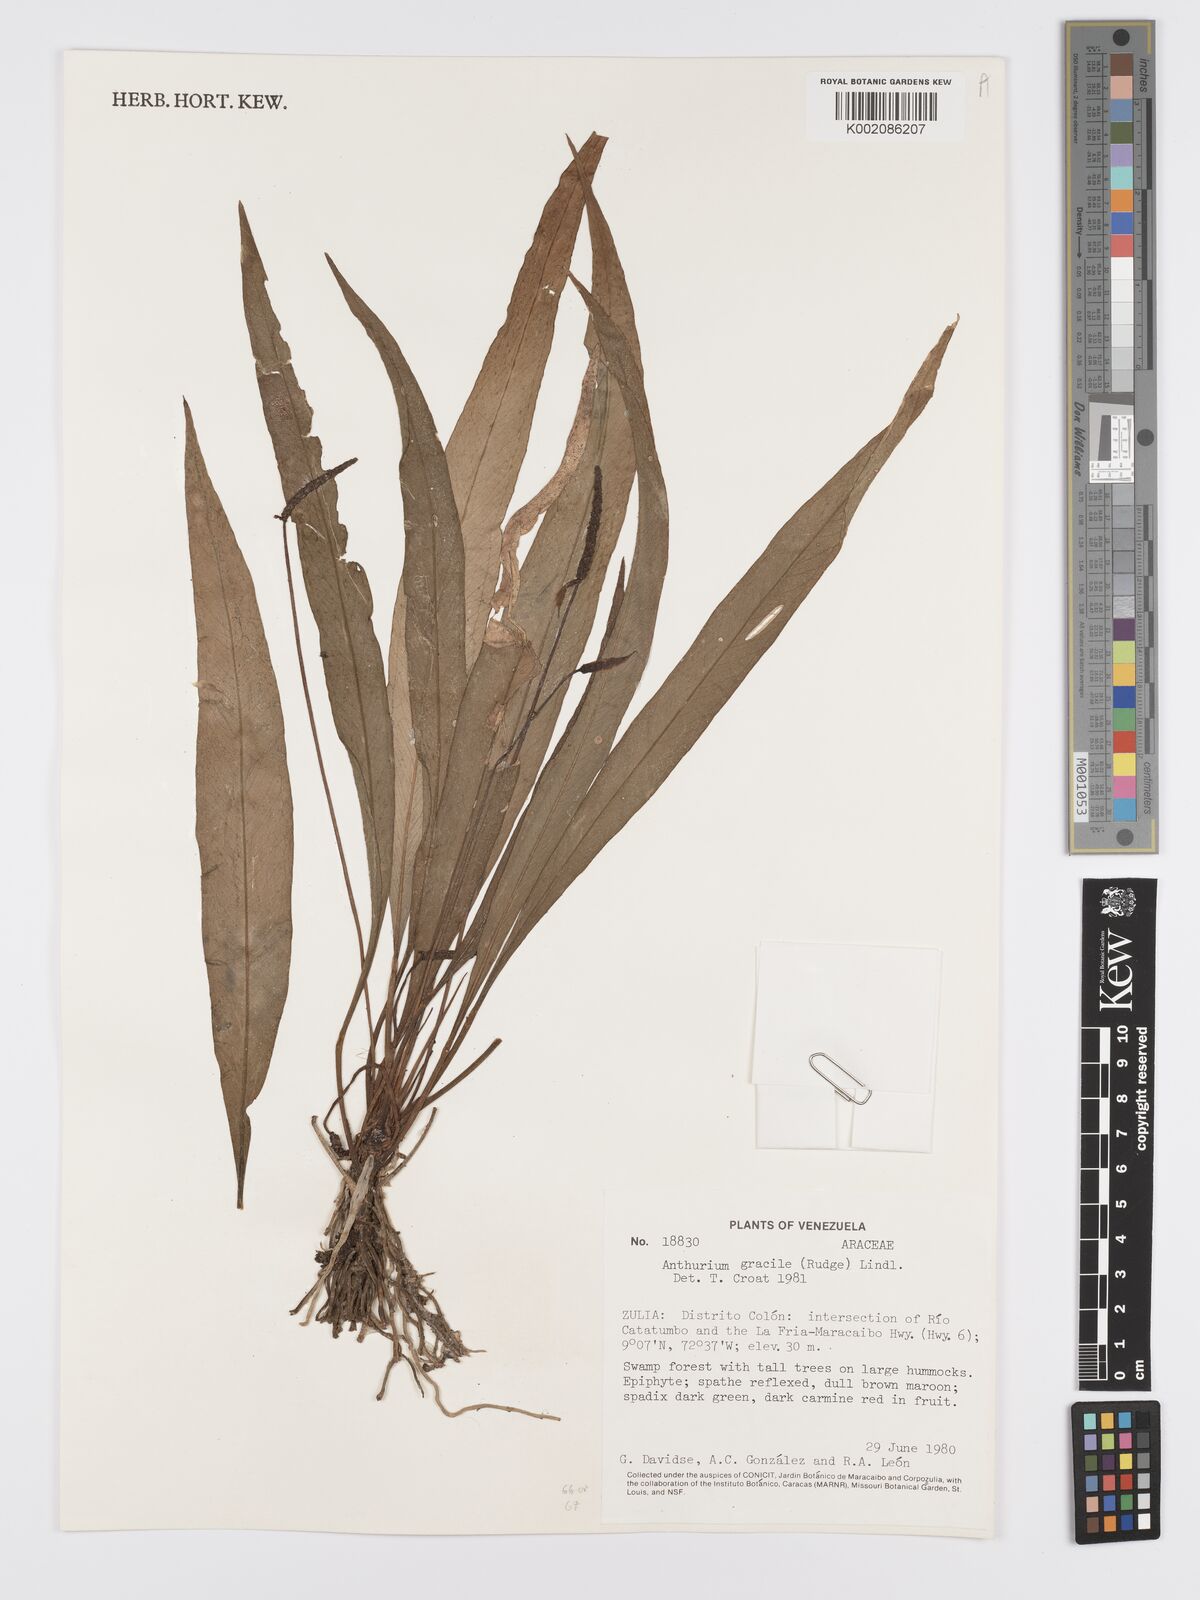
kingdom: Plantae
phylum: Tracheophyta
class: Liliopsida
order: Alismatales
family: Araceae
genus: Anthurium
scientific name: Anthurium gracile
